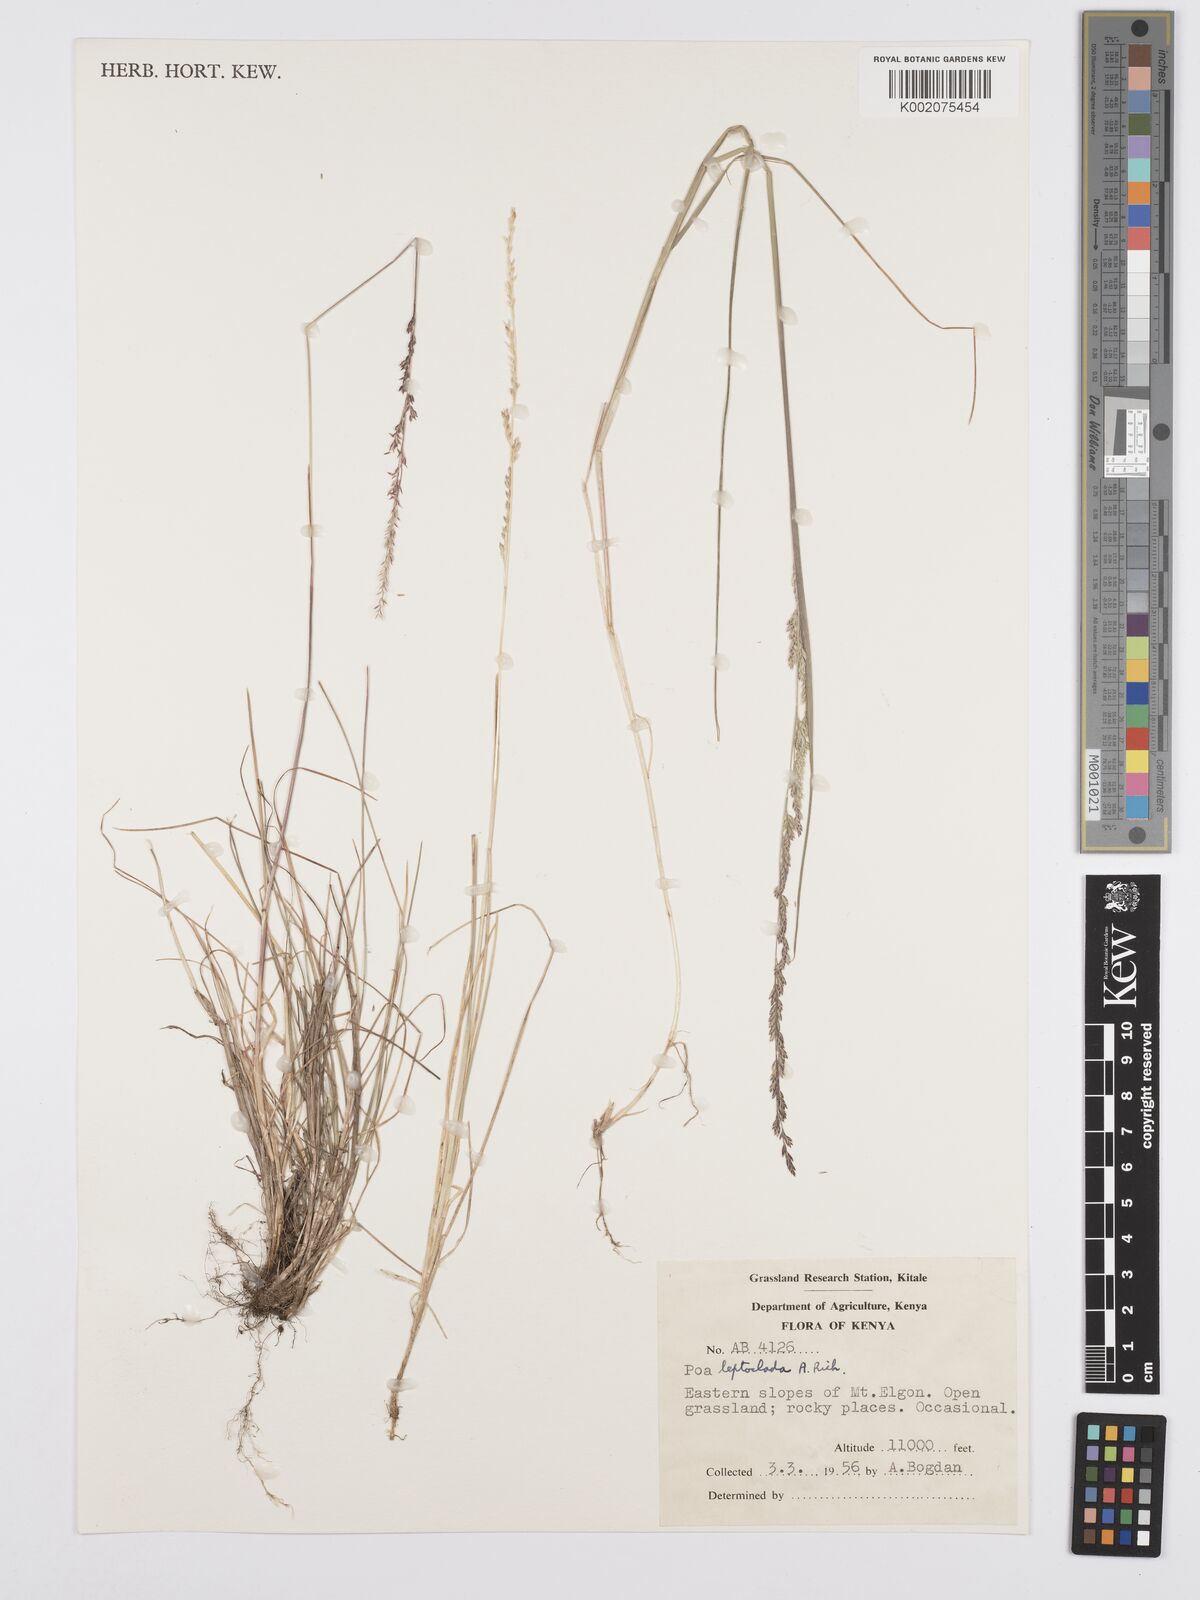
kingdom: Plantae
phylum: Tracheophyta
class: Liliopsida
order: Poales
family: Poaceae
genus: Poa
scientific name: Poa leptoclada
